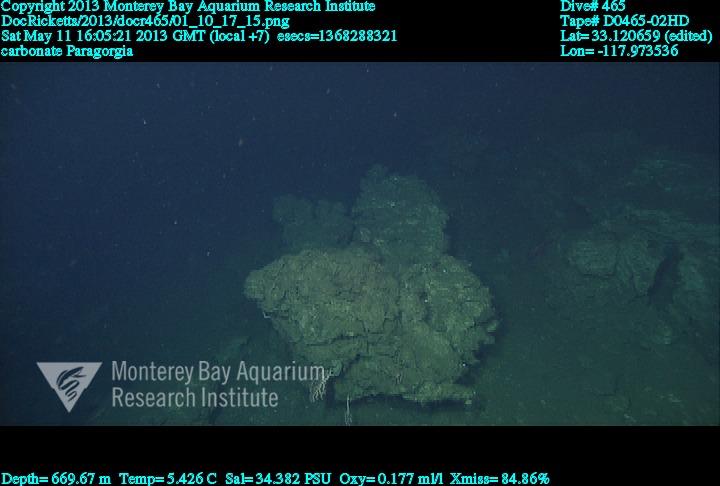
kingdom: Animalia
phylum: Cnidaria
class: Anthozoa
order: Scleralcyonacea
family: Coralliidae
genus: Paragorgia
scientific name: Paragorgia
